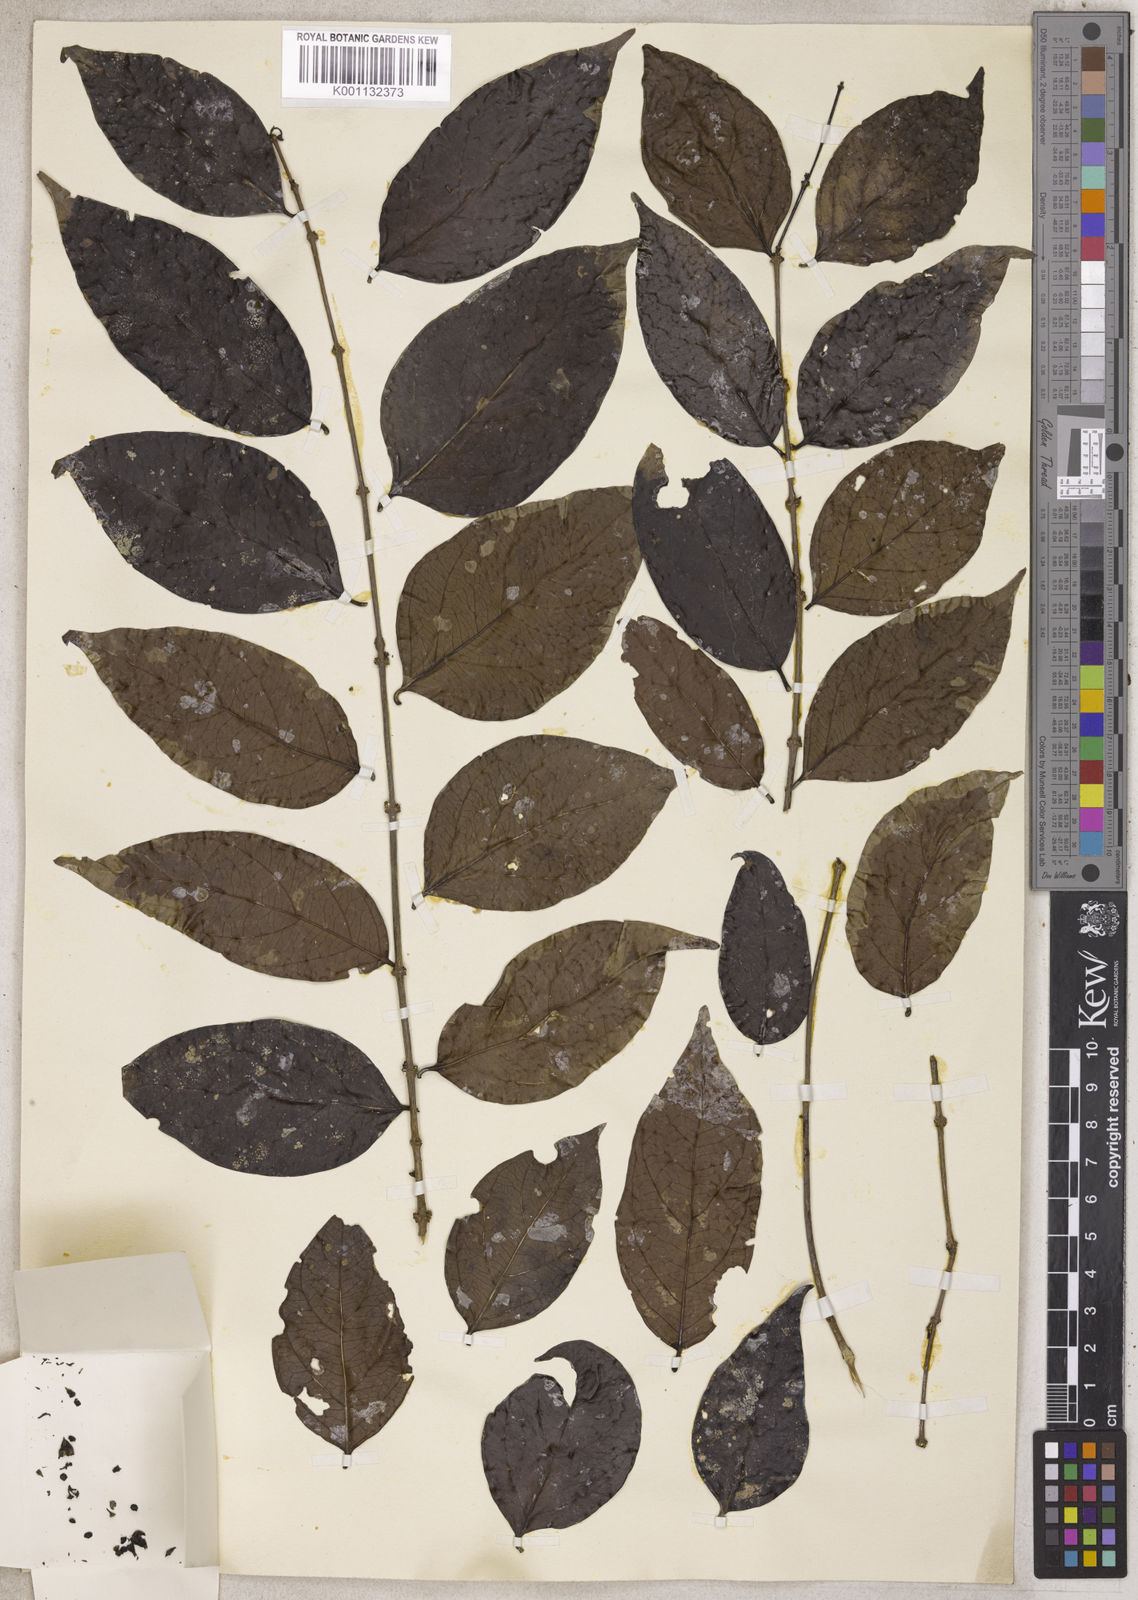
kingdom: Plantae
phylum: Tracheophyta
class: Magnoliopsida
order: Gentianales
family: Rubiaceae
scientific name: Rubiaceae
